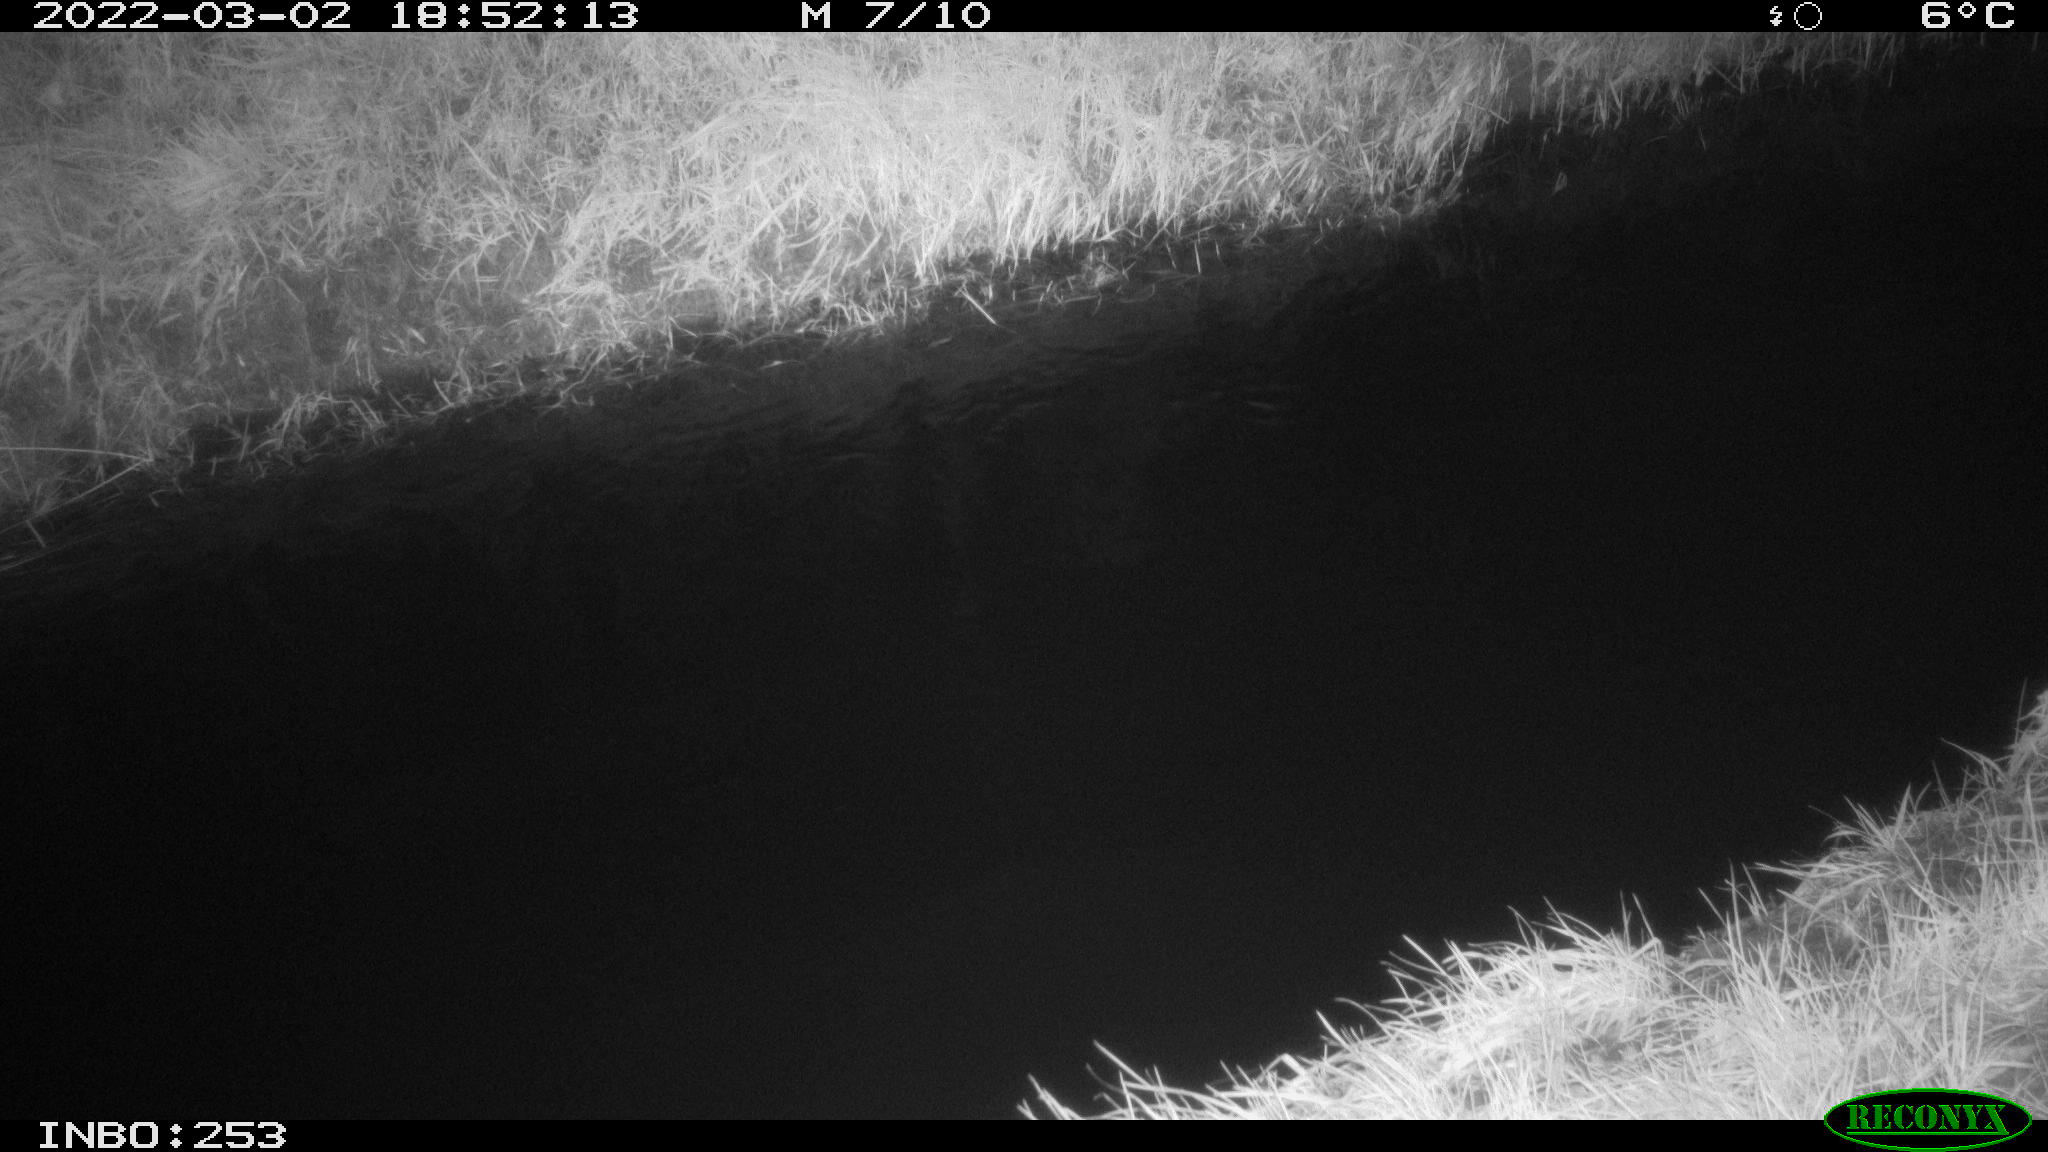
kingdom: Animalia
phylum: Chordata
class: Aves
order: Anseriformes
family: Anatidae
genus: Anas
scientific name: Anas platyrhynchos
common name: Mallard
